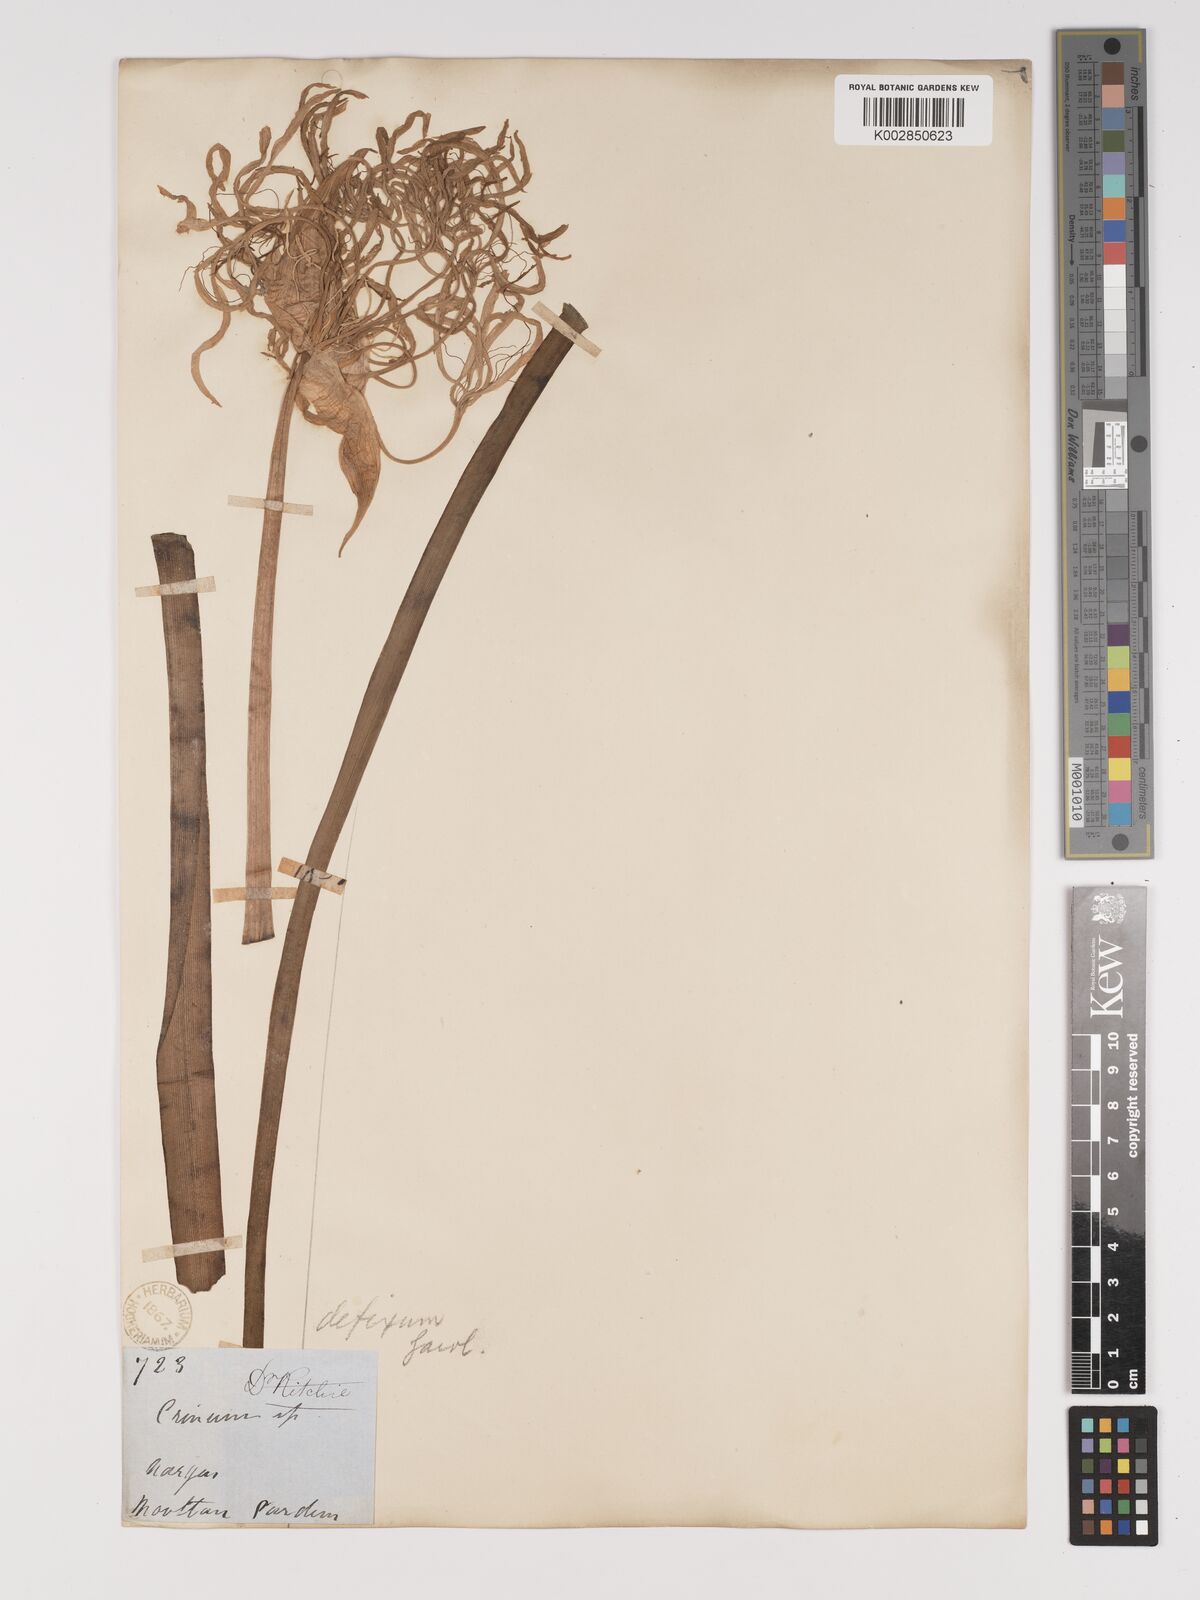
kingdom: Plantae
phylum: Tracheophyta
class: Liliopsida
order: Asparagales
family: Amaryllidaceae
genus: Crinum
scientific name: Crinum defixum
